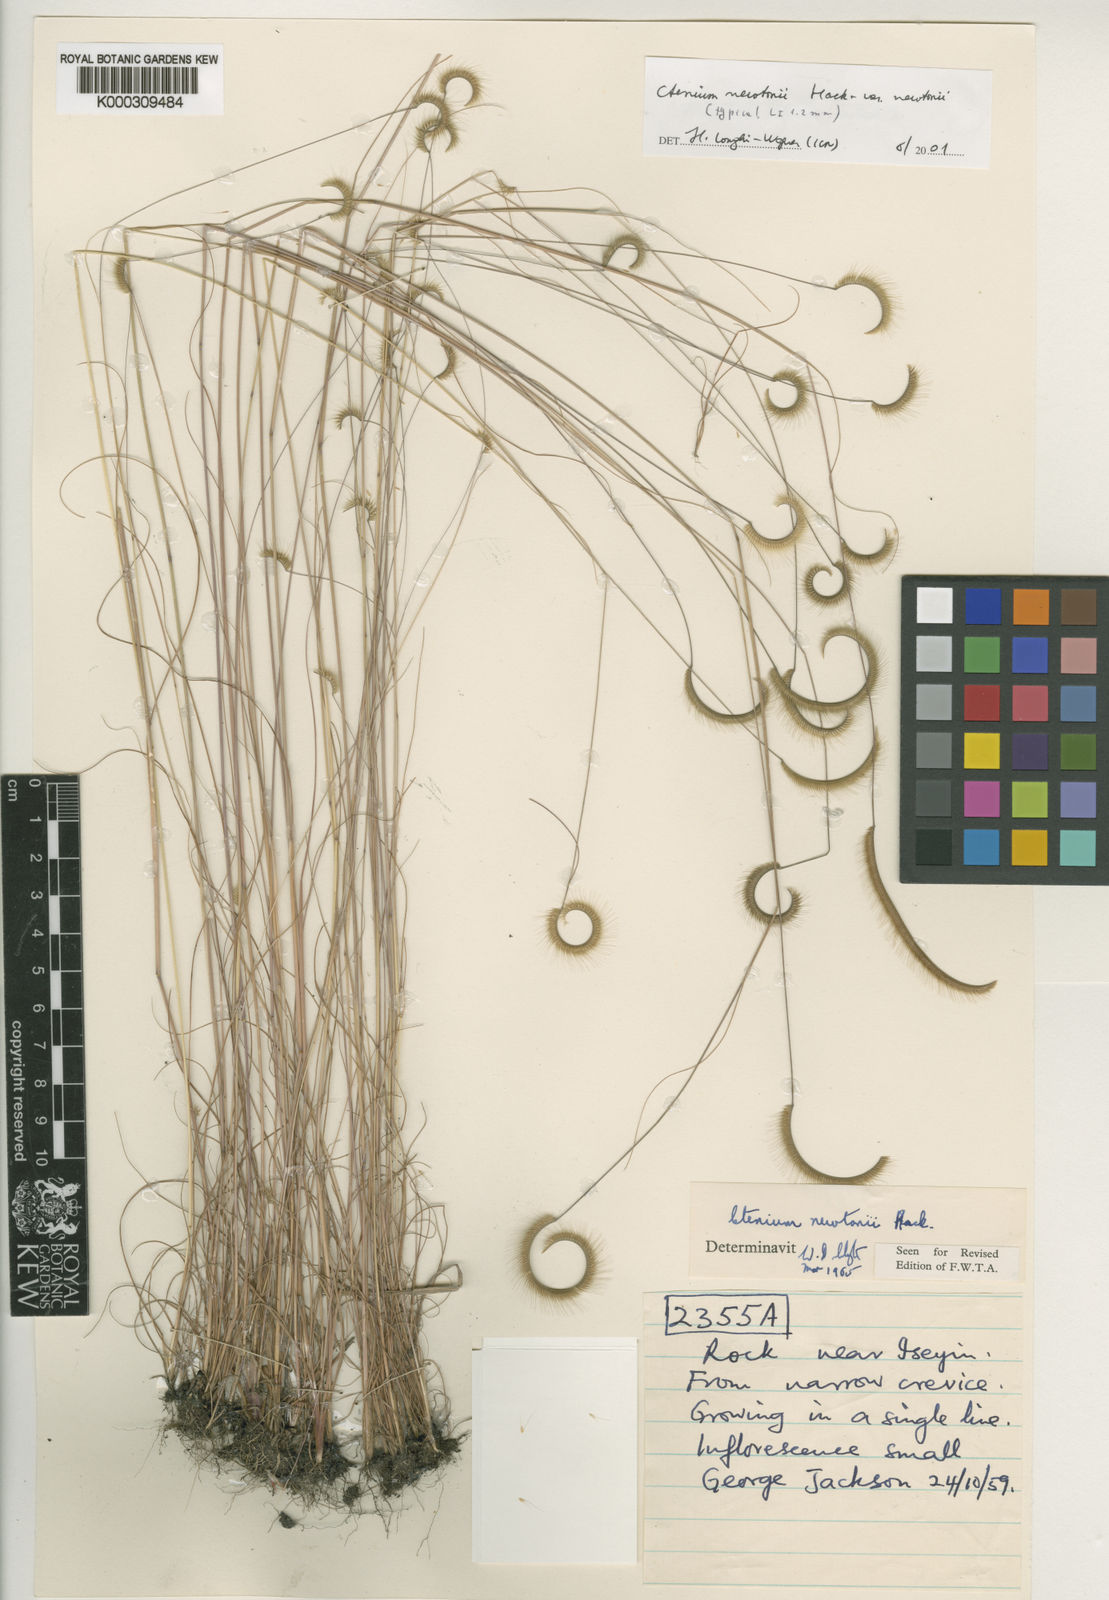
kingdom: Plantae
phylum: Tracheophyta
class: Liliopsida
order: Poales
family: Poaceae
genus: Ctenium
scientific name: Ctenium newtonii
